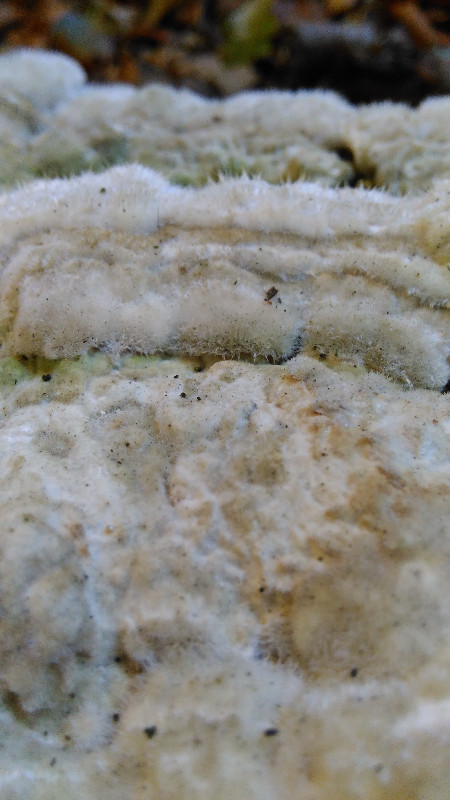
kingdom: Fungi
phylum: Basidiomycota
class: Agaricomycetes
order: Russulales
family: Stereaceae
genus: Stereum
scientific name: Stereum hirsutum
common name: håret lædersvamp
